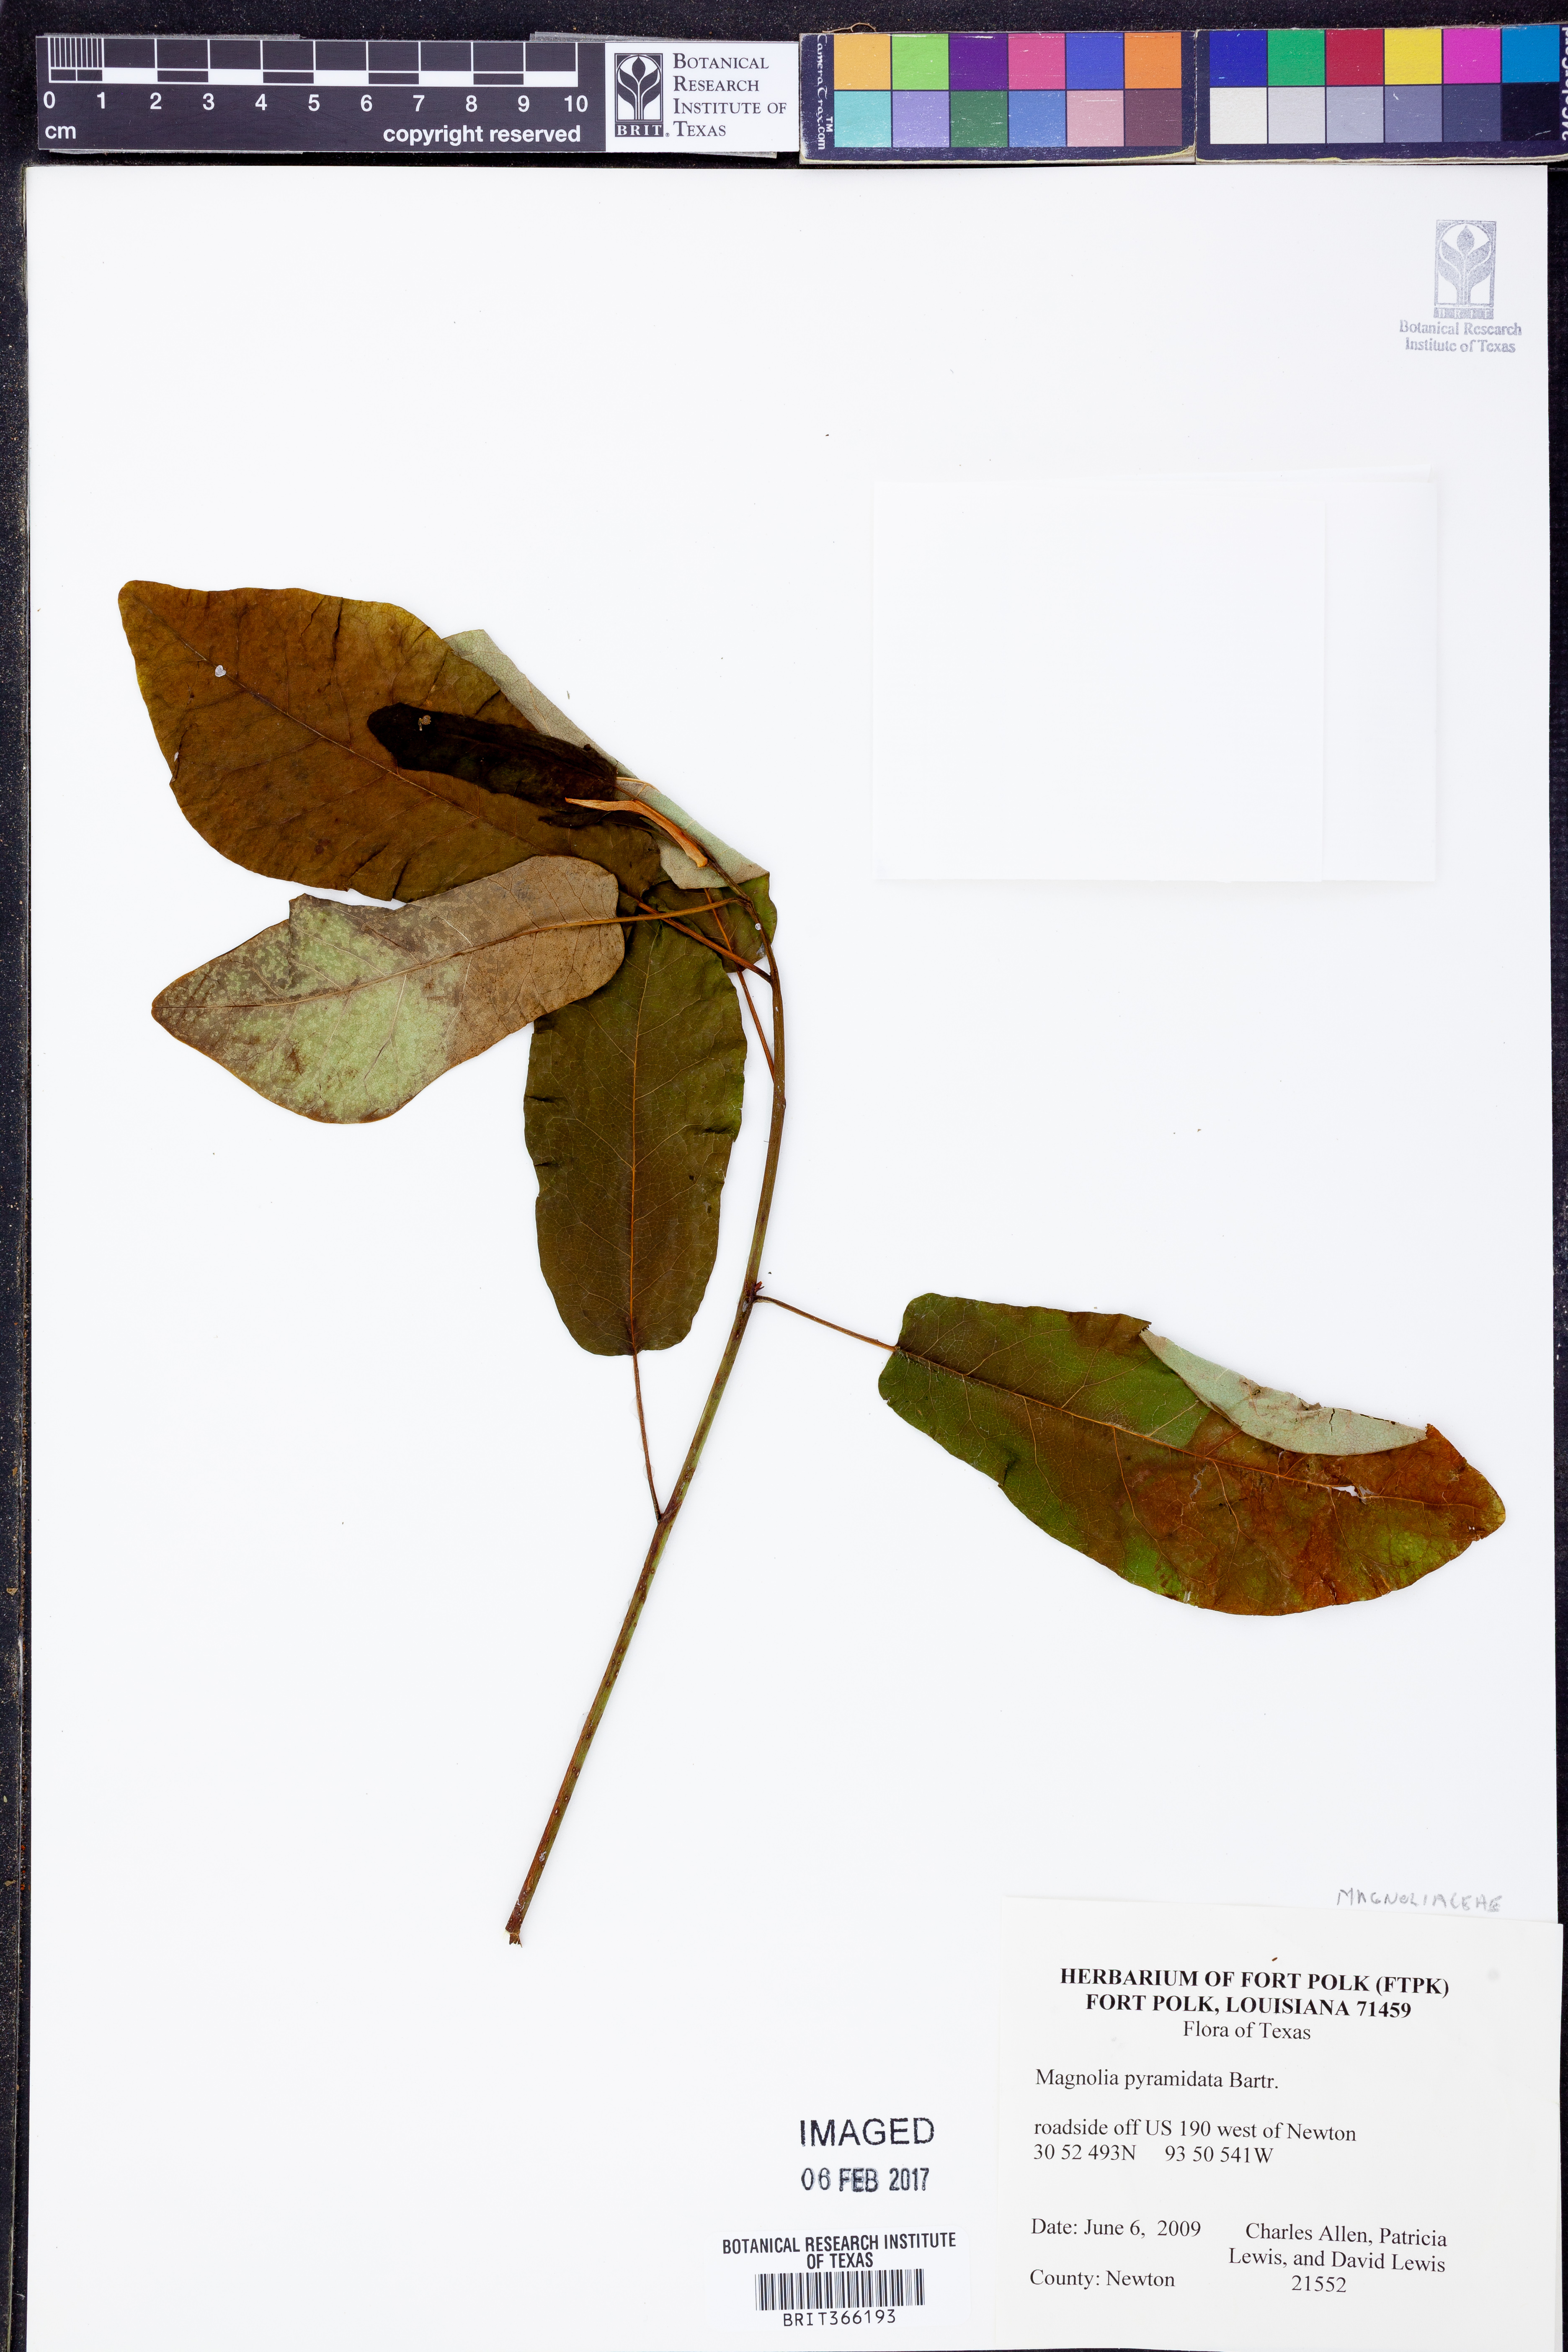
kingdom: Plantae
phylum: Tracheophyta
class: Magnoliopsida
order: Magnoliales
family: Magnoliaceae
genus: Magnolia
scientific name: Magnolia fraseri
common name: Fraser's magnolia
